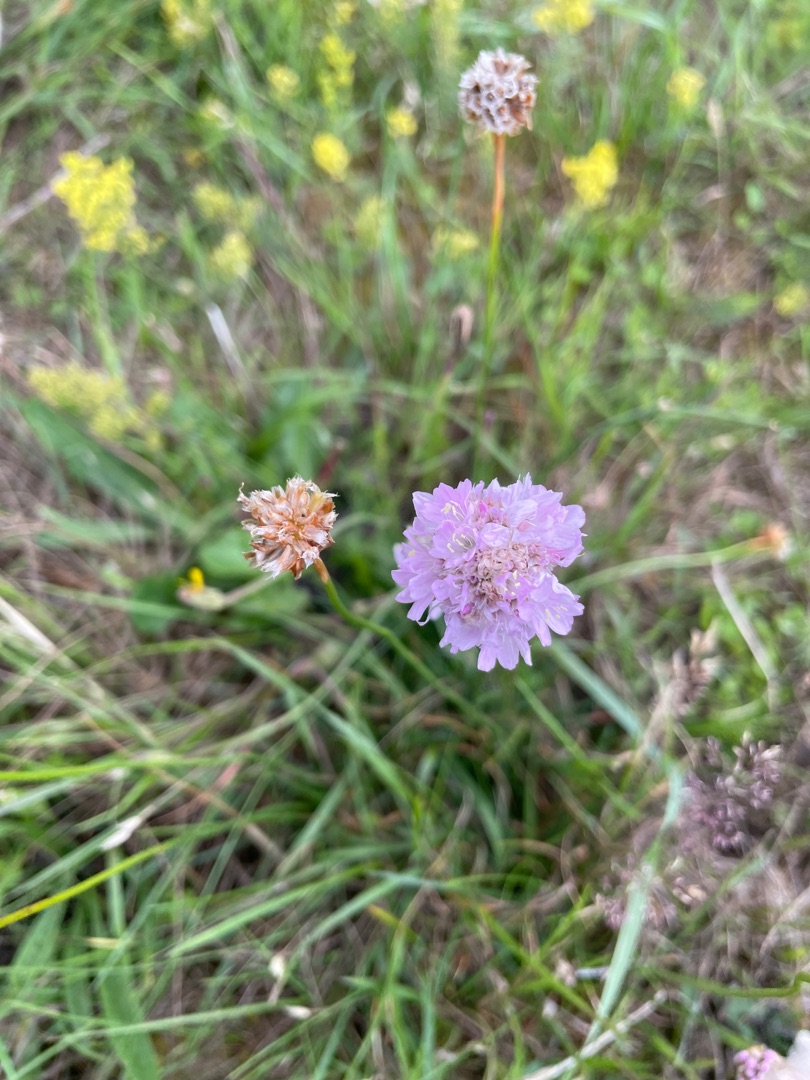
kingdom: Plantae
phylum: Tracheophyta
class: Magnoliopsida
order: Caryophyllales
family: Plumbaginaceae
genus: Armeria
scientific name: Armeria maritima
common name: Engelskgræs
